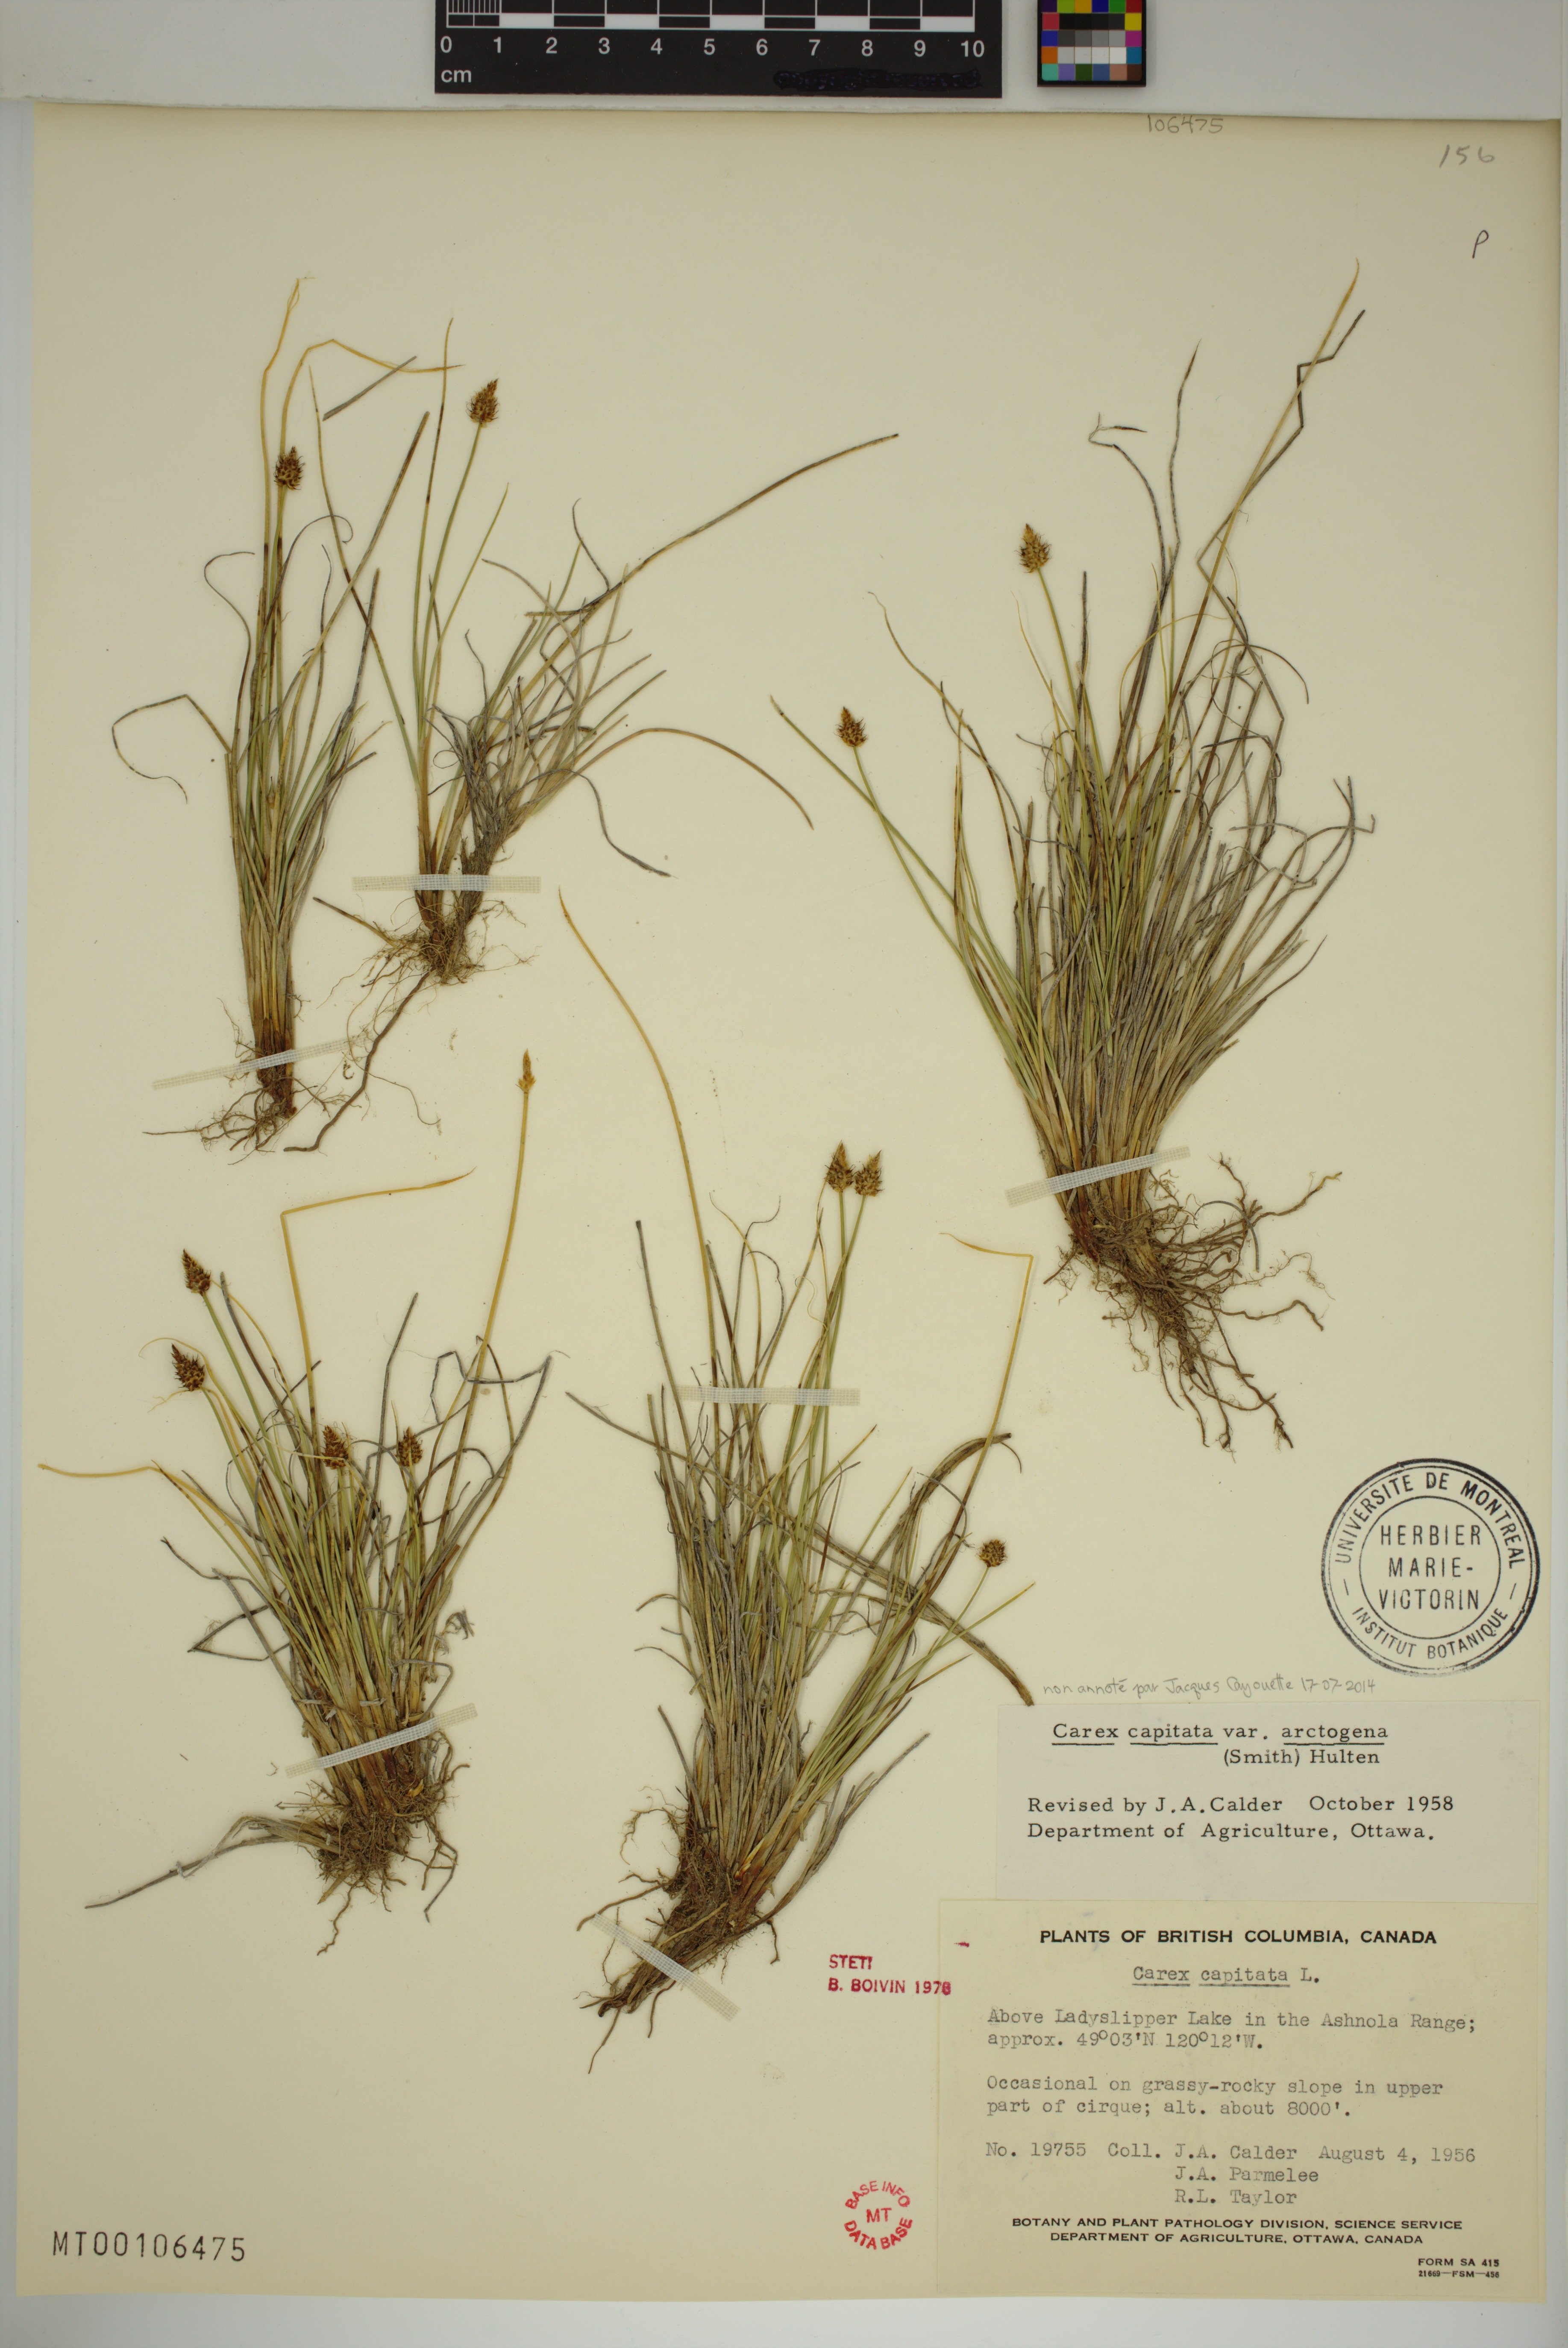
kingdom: Plantae
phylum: Tracheophyta
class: Liliopsida
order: Poales
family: Cyperaceae
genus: Carex
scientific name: Carex capitata
